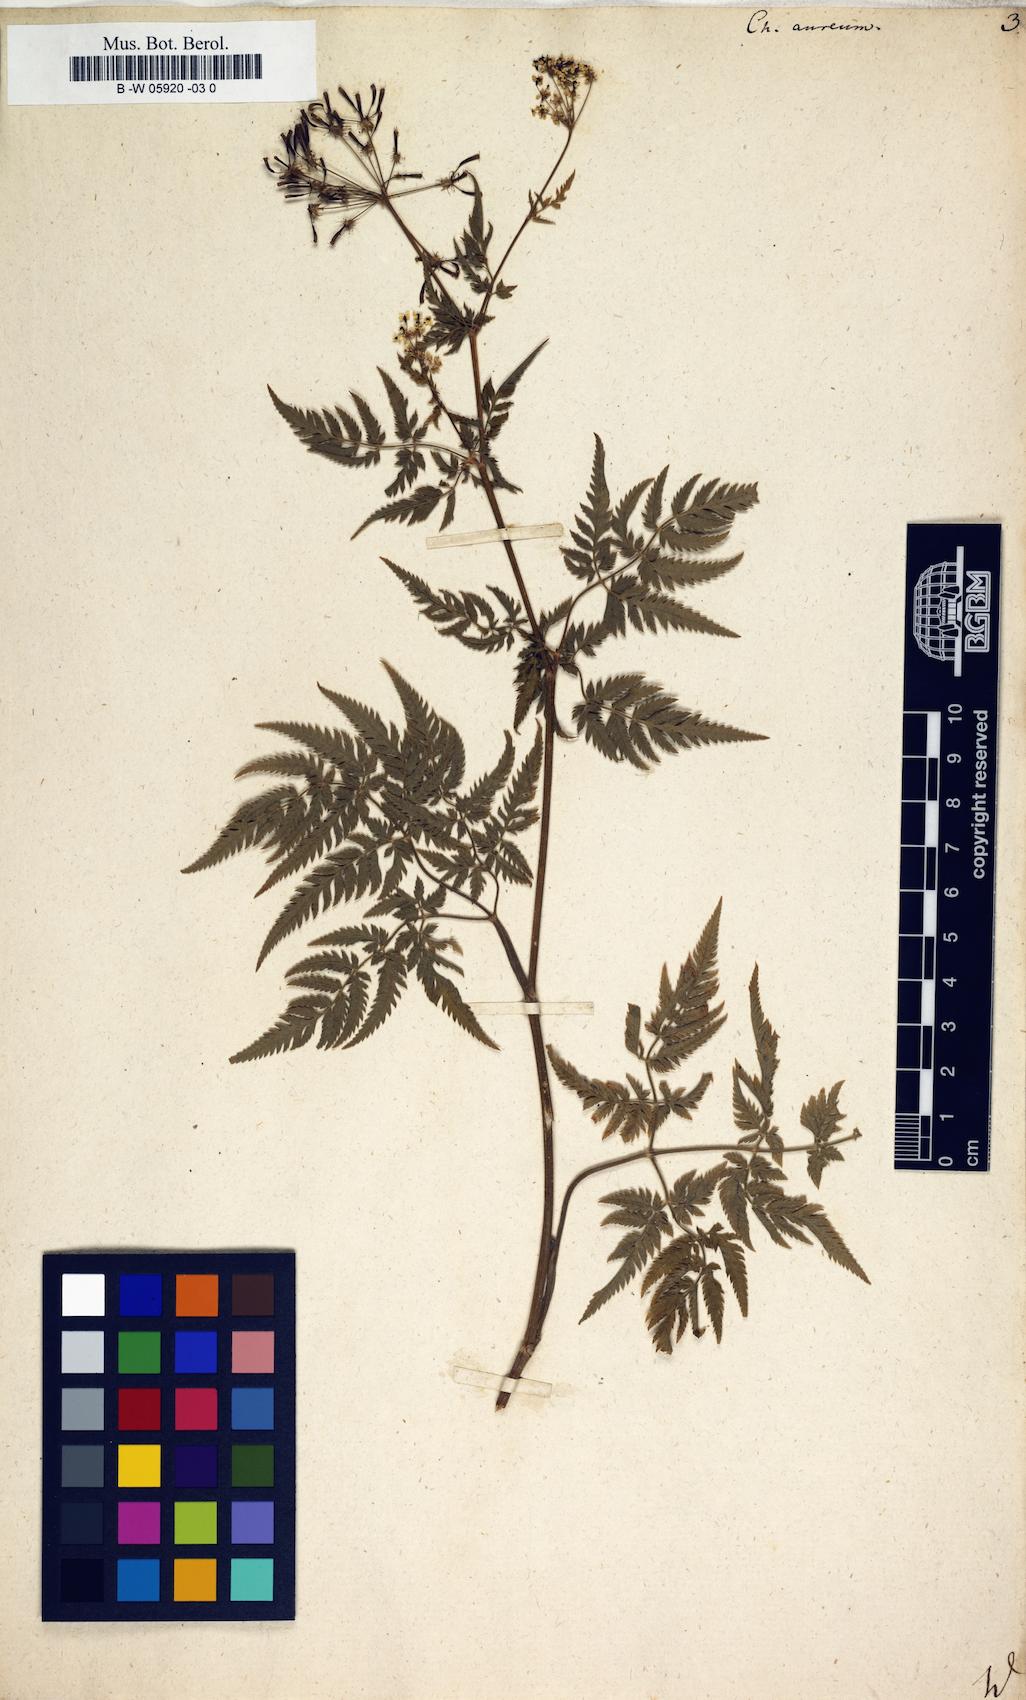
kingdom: Plantae
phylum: Tracheophyta
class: Magnoliopsida
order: Apiales
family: Apiaceae
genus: Chaerophyllum
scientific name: Chaerophyllum aureum
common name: Golden chervil
